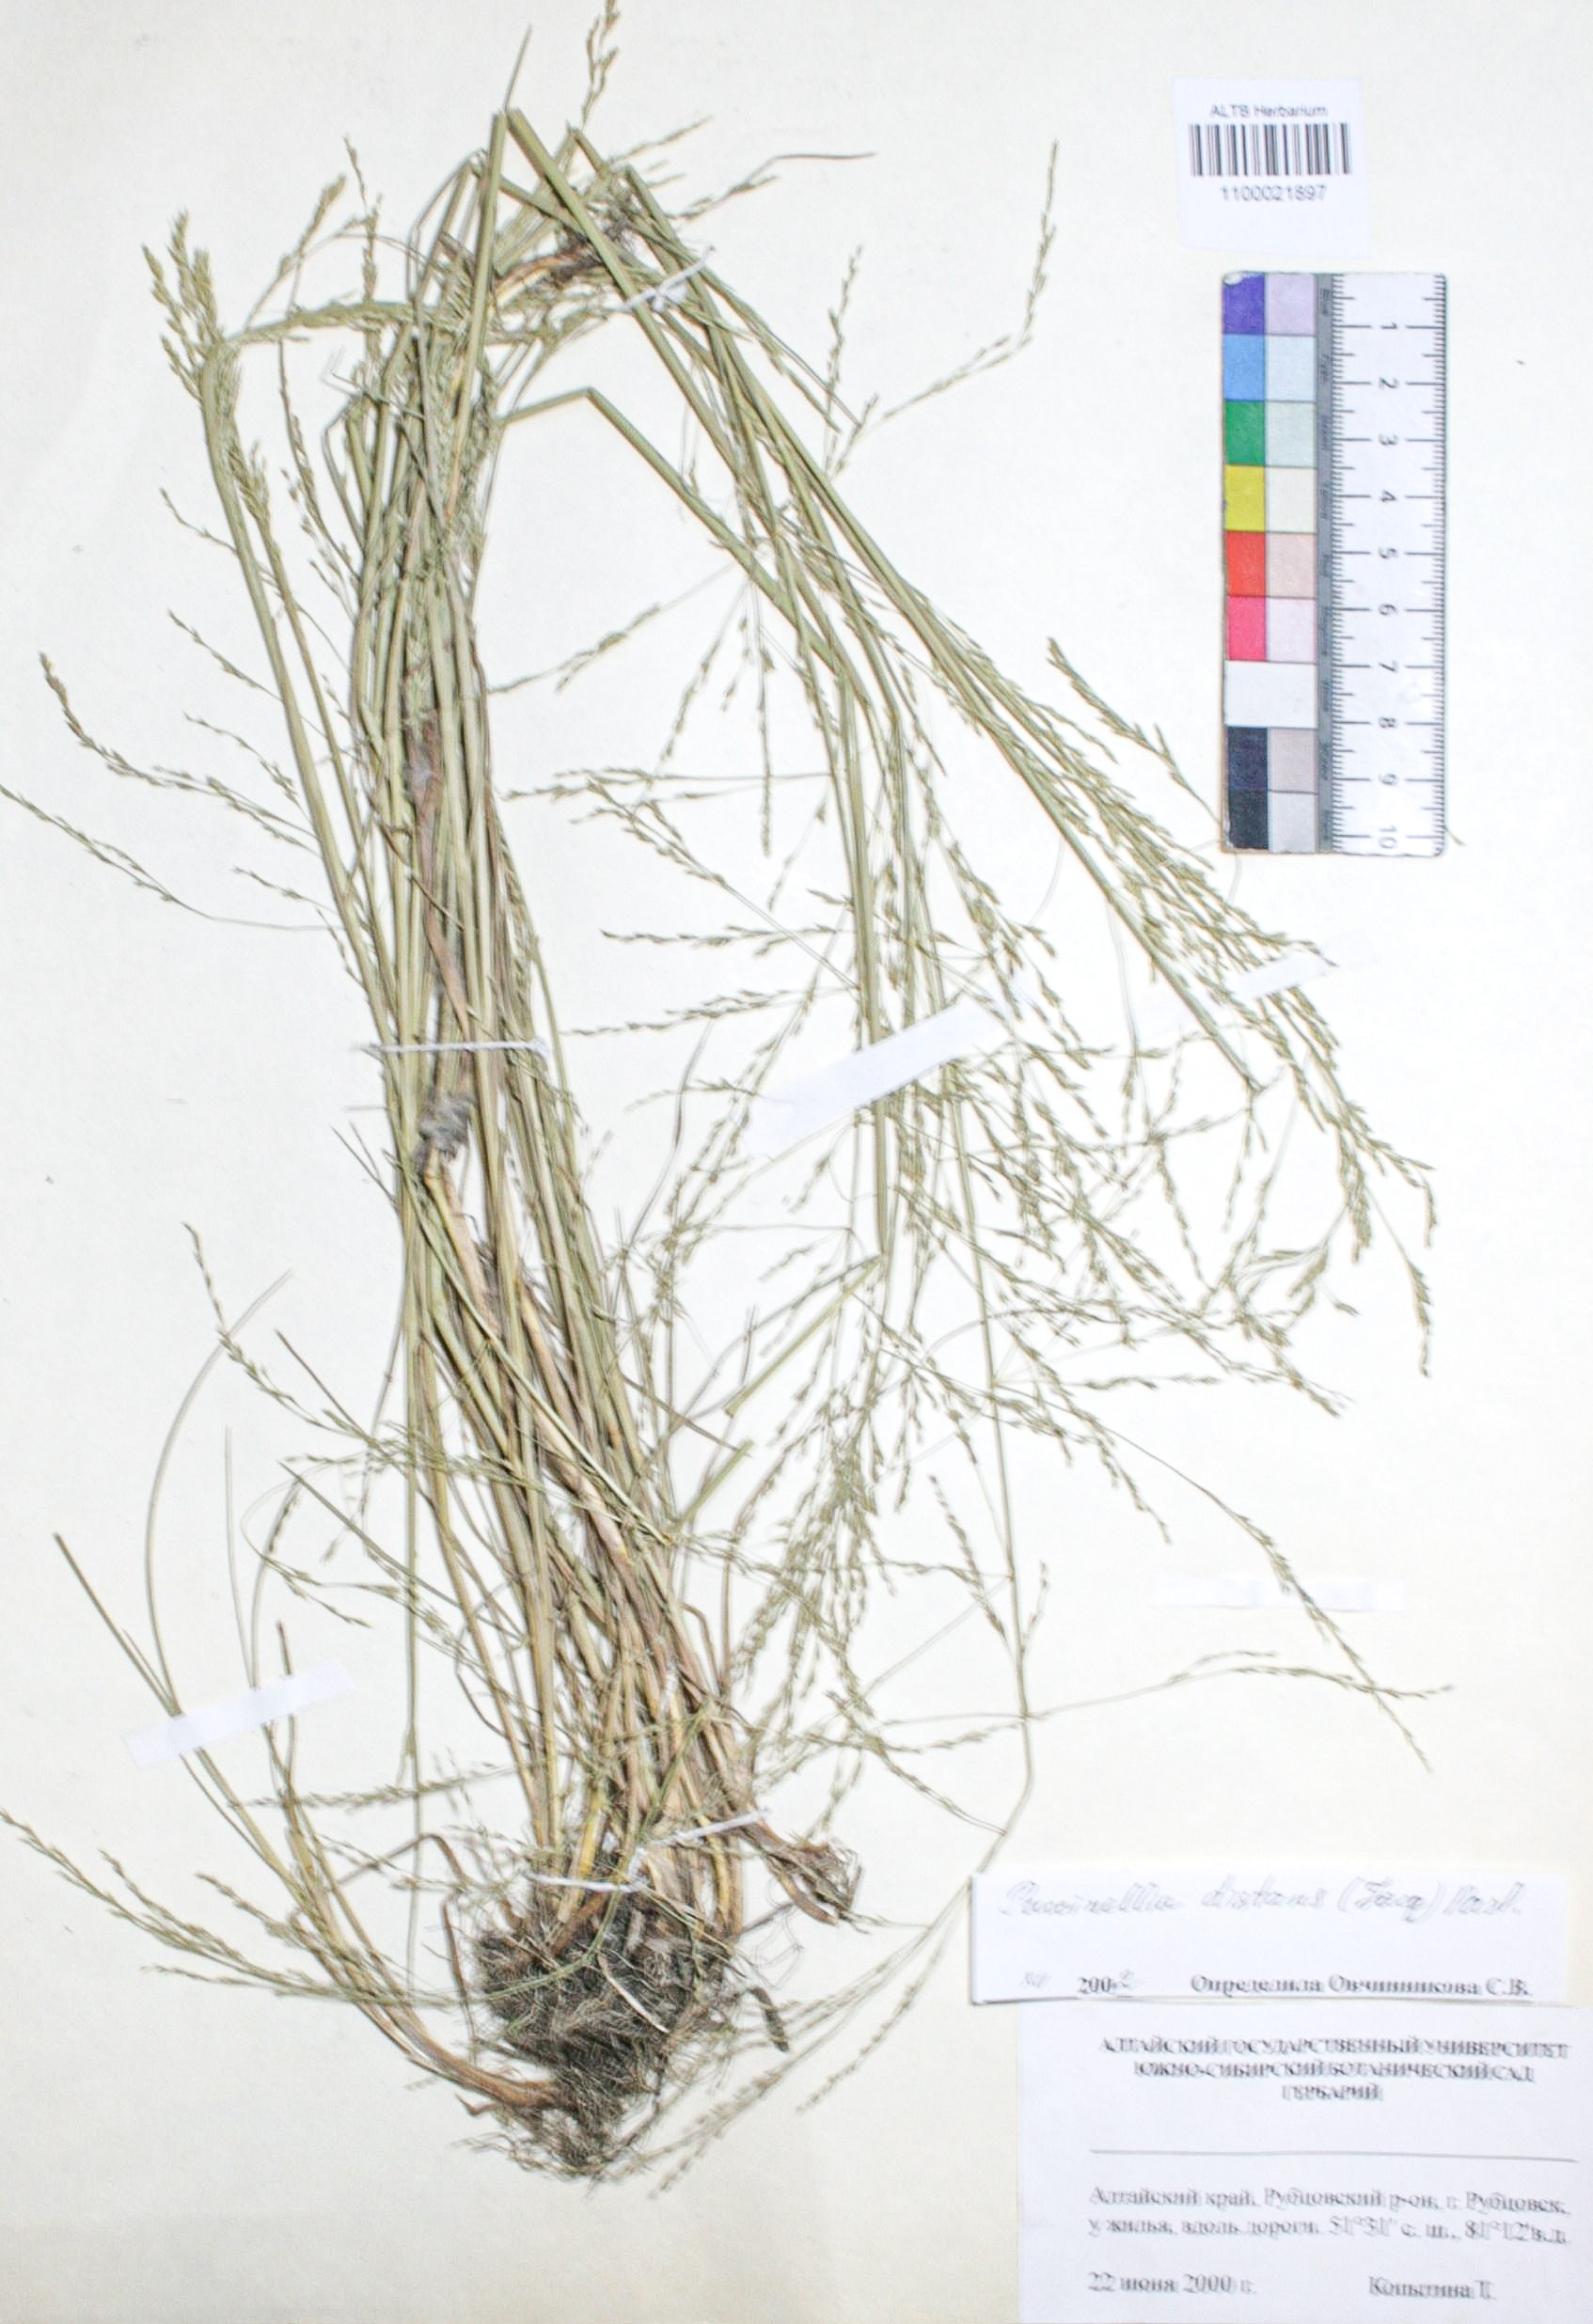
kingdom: Plantae
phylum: Tracheophyta
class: Liliopsida
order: Poales
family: Poaceae
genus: Puccinellia
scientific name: Puccinellia distans
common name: Weeping alkaligrass
